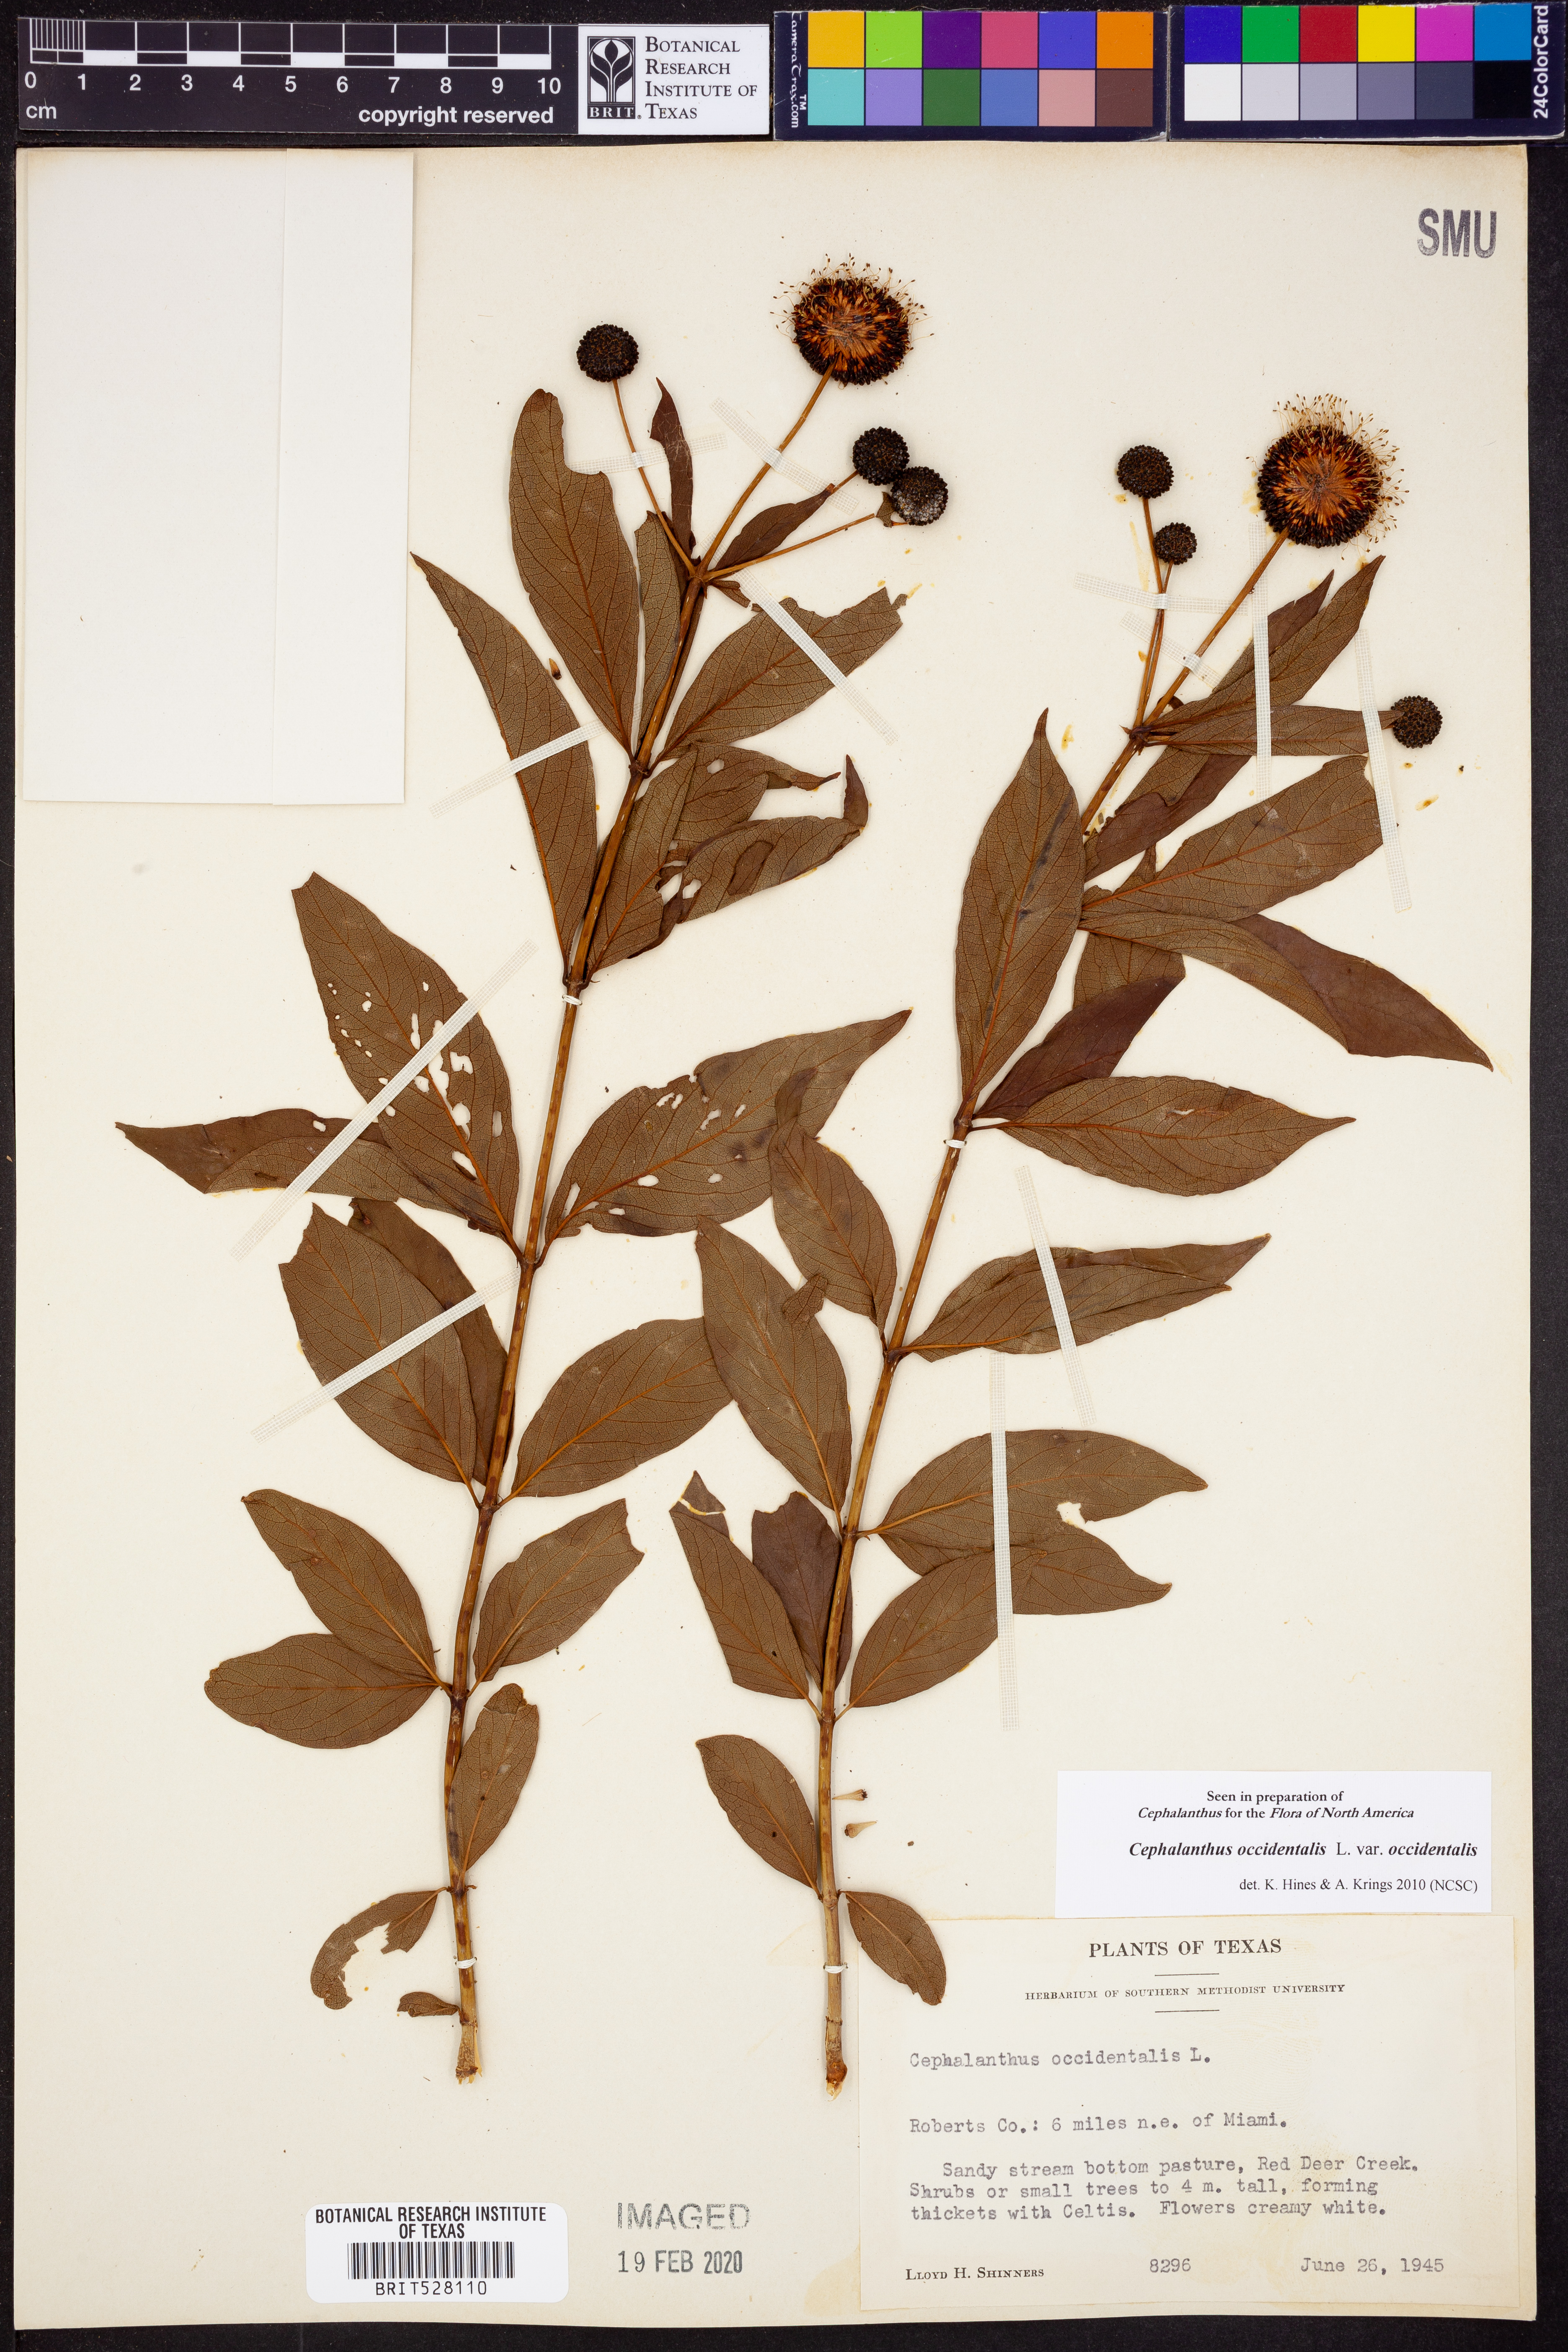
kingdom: Plantae
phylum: Tracheophyta
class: Magnoliopsida
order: Gentianales
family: Rubiaceae
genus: Cephalanthus
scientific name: Cephalanthus occidentalis
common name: Button-willow
